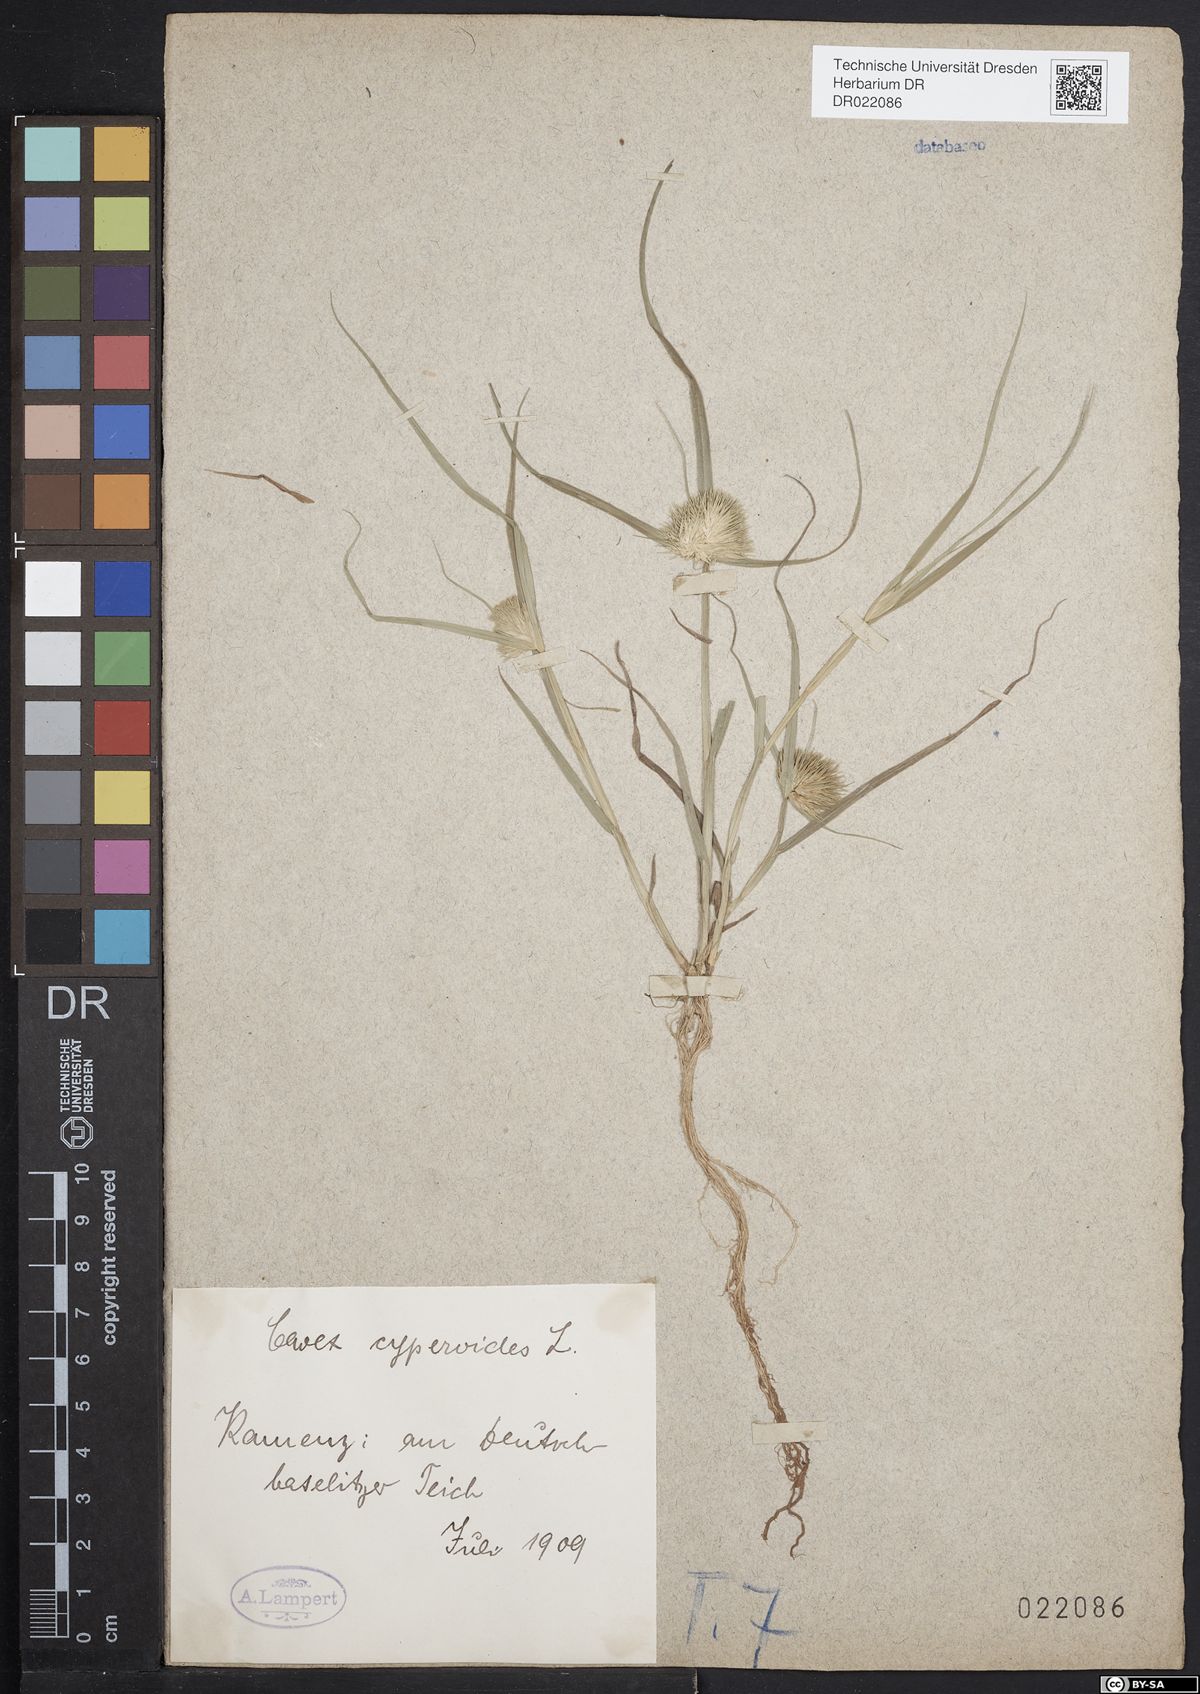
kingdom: Plantae
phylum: Tracheophyta
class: Liliopsida
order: Poales
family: Cyperaceae
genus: Carex
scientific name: Carex bohemica
